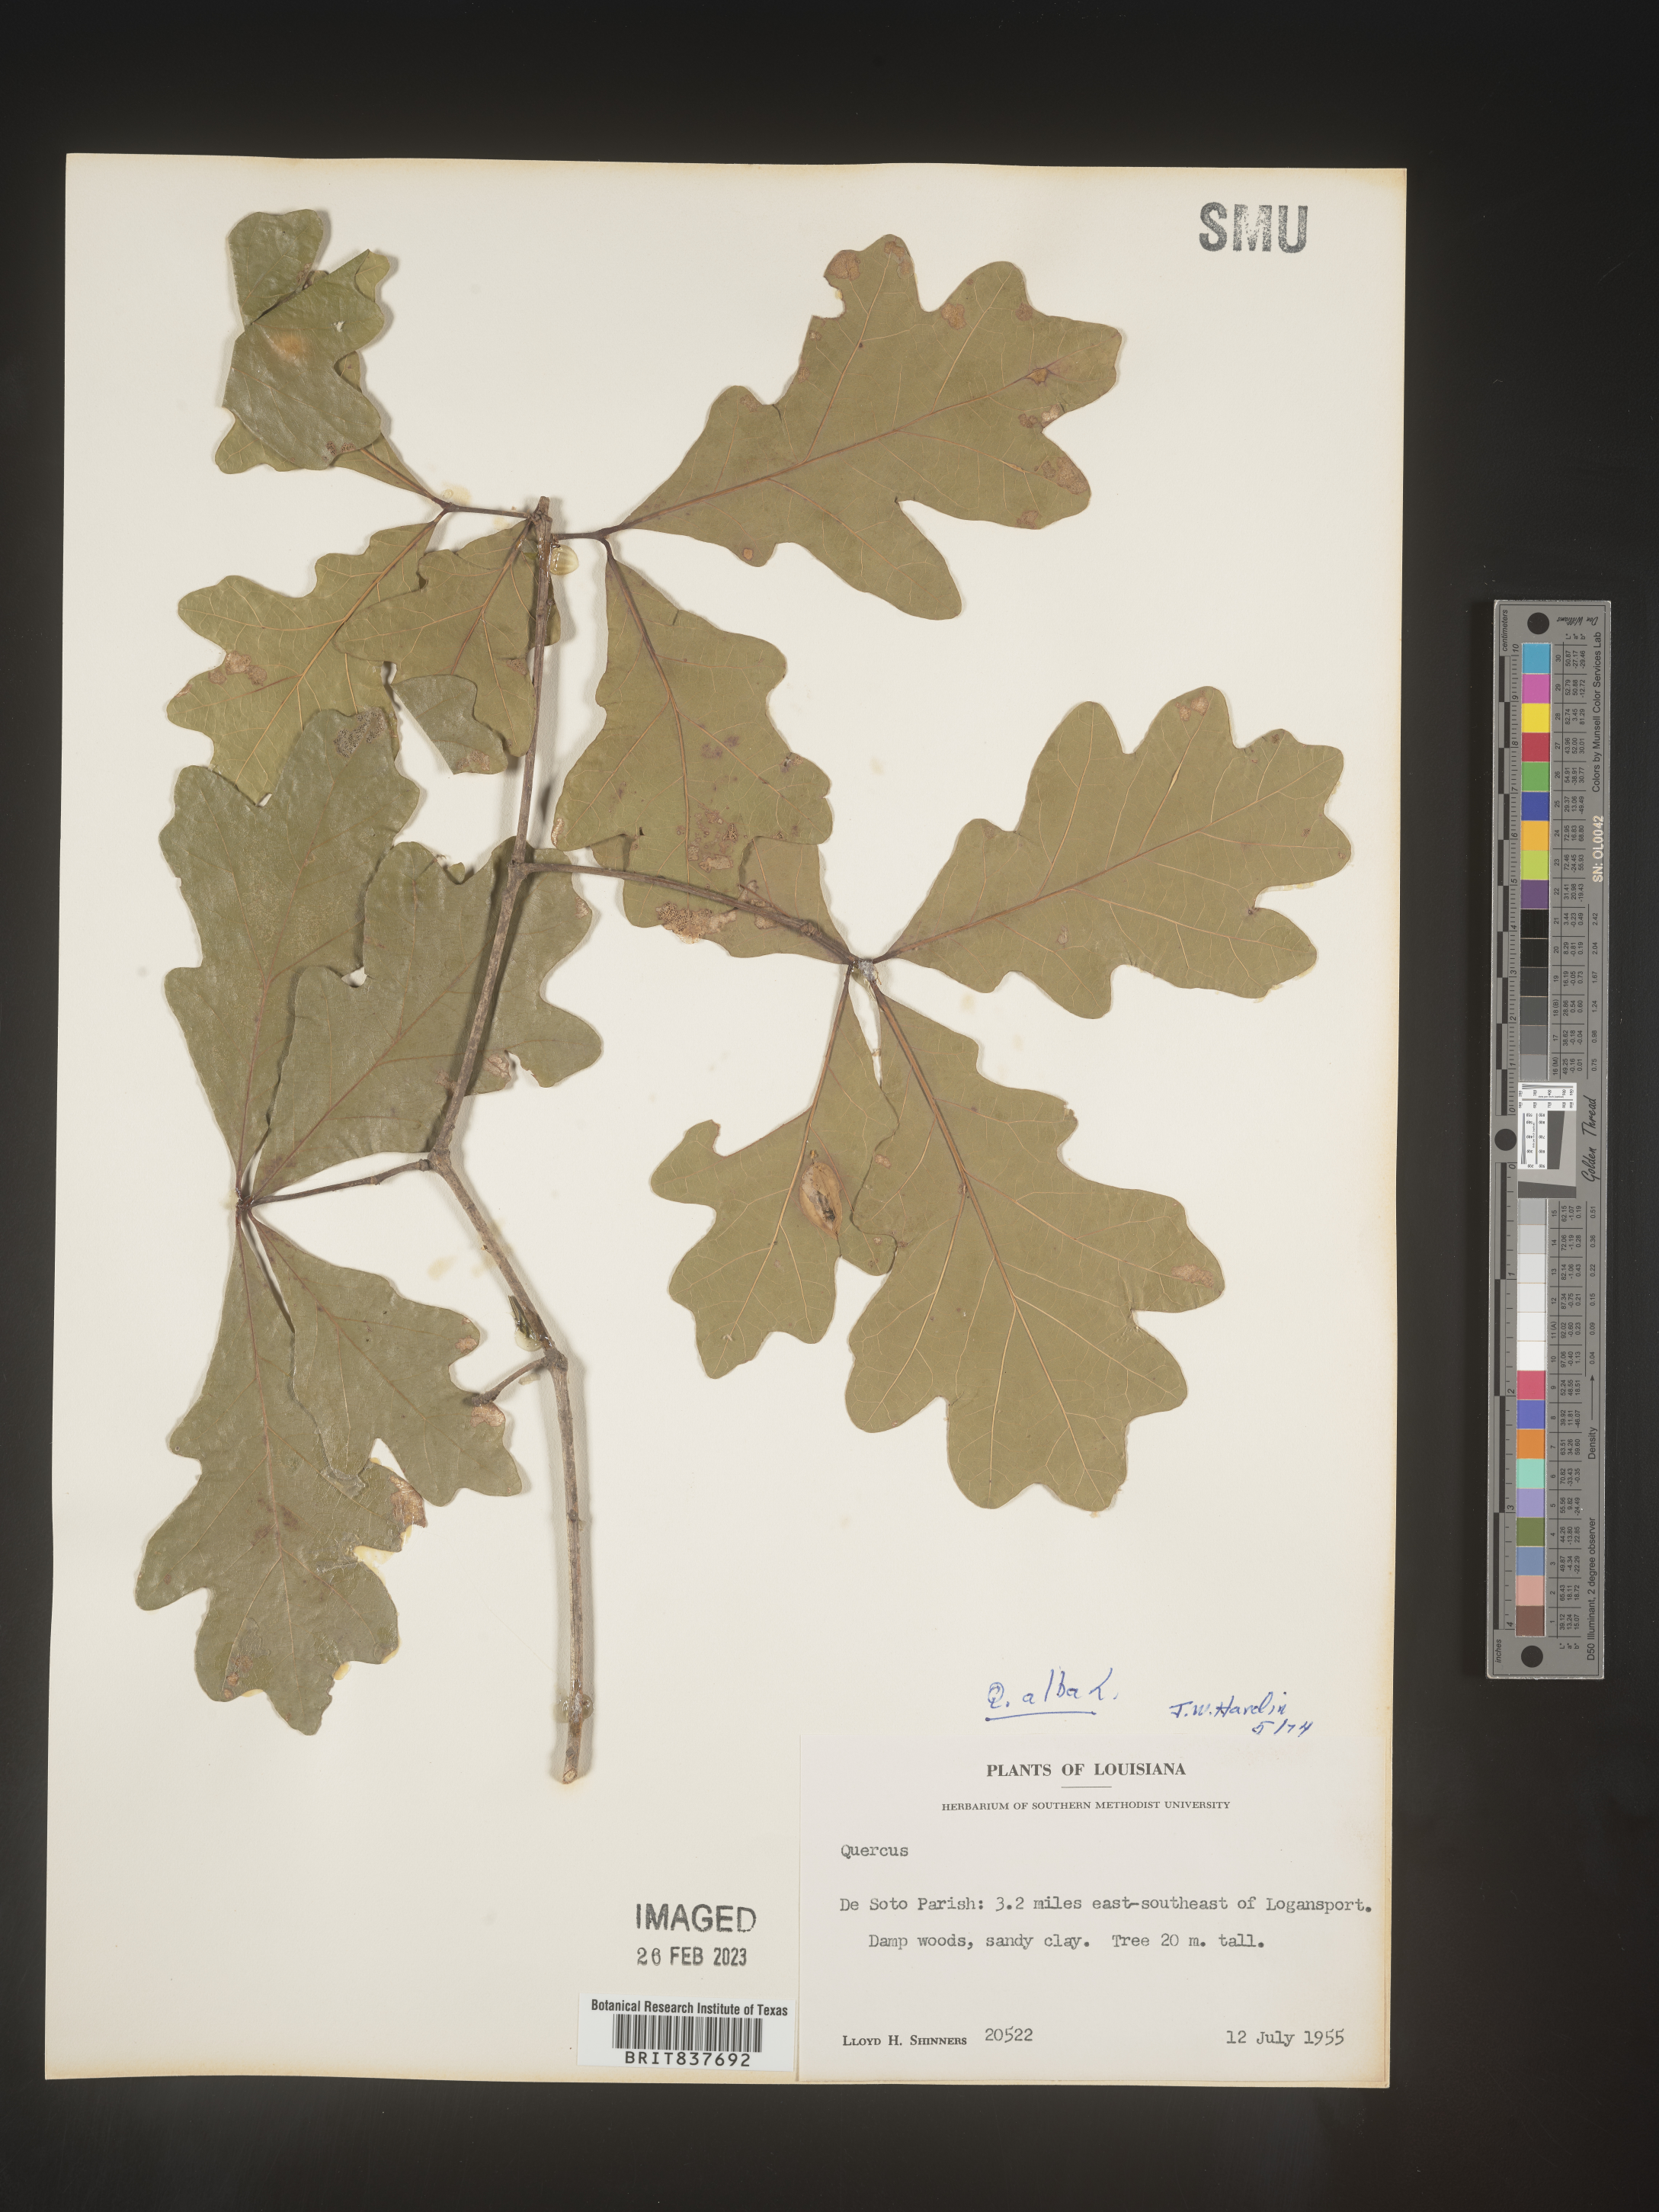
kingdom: Plantae
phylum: Tracheophyta
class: Magnoliopsida
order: Fagales
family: Fagaceae
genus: Quercus
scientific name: Quercus alba
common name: White oak
